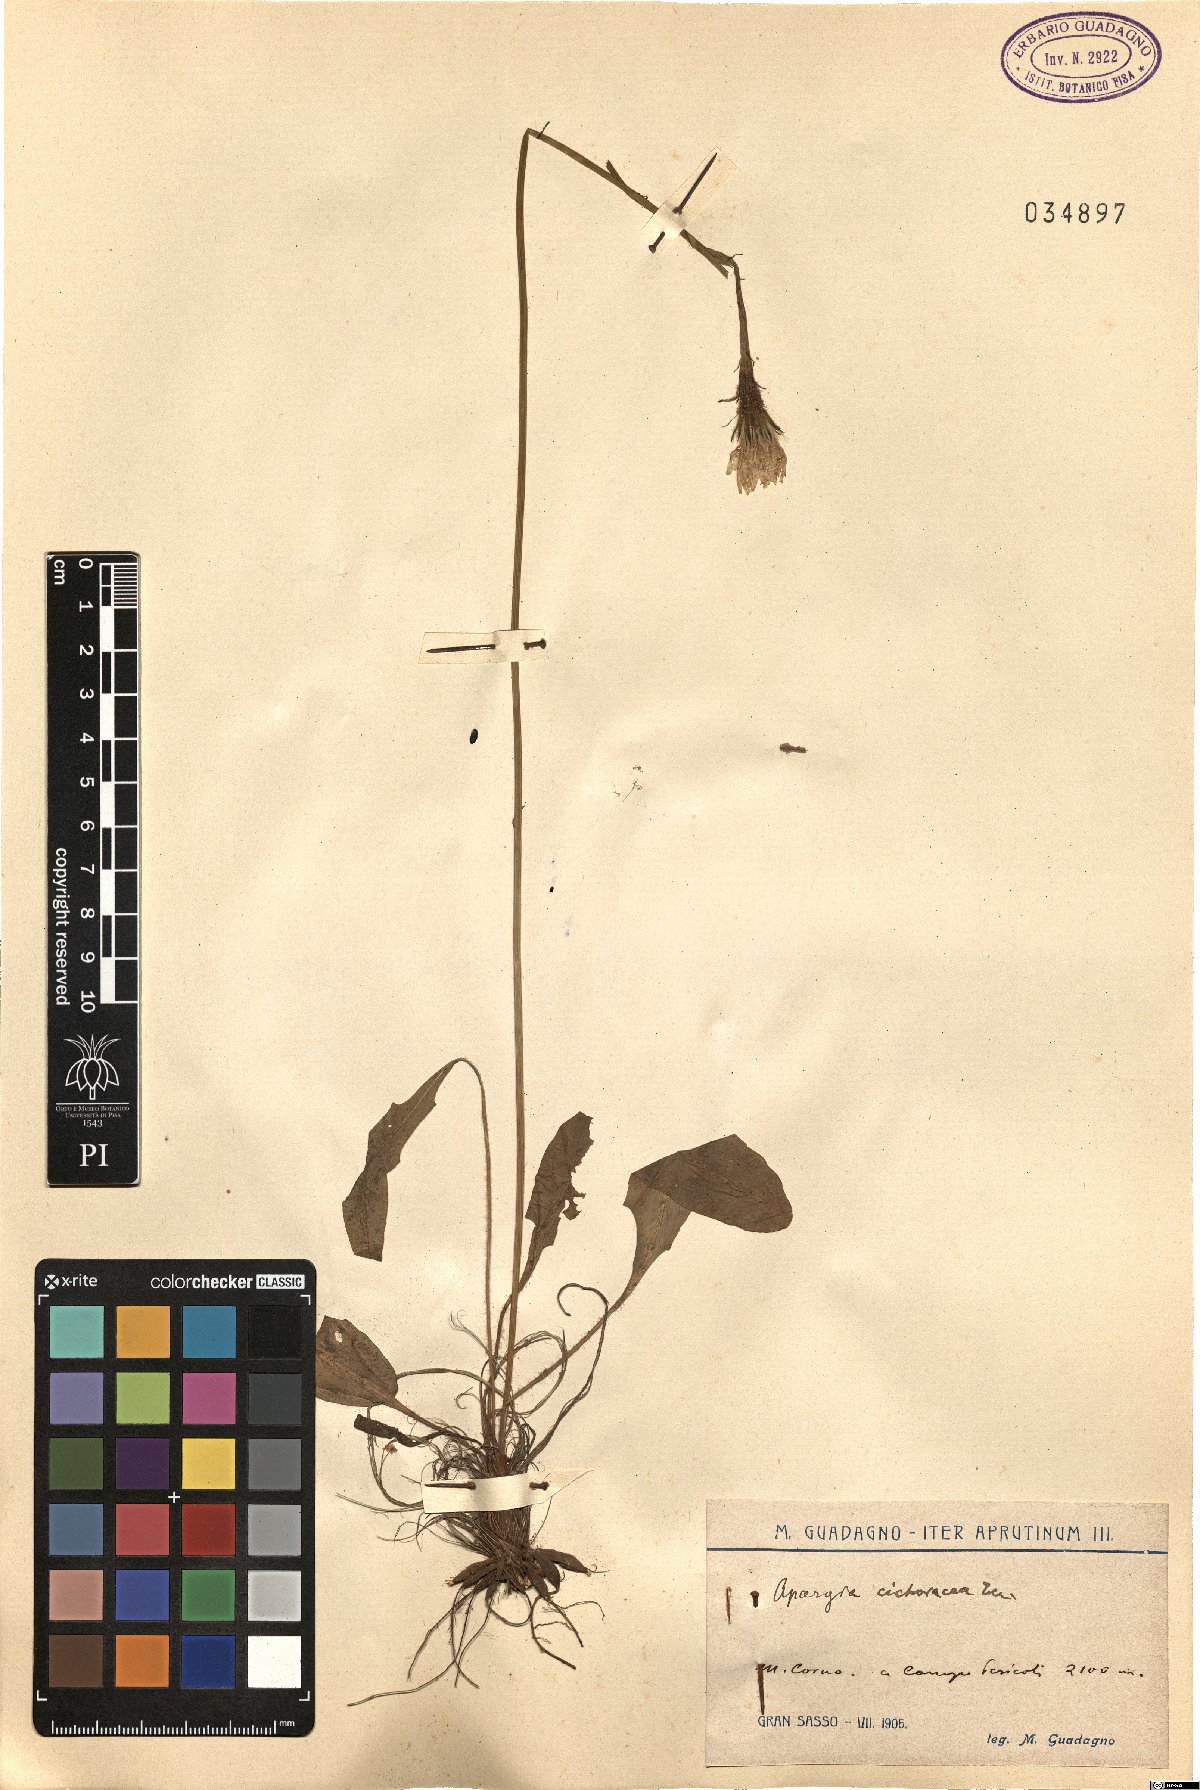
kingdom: Plantae
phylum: Tracheophyta
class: Magnoliopsida
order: Asterales
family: Asteraceae
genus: Scorzoneroides
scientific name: Scorzoneroides cichoriacea
